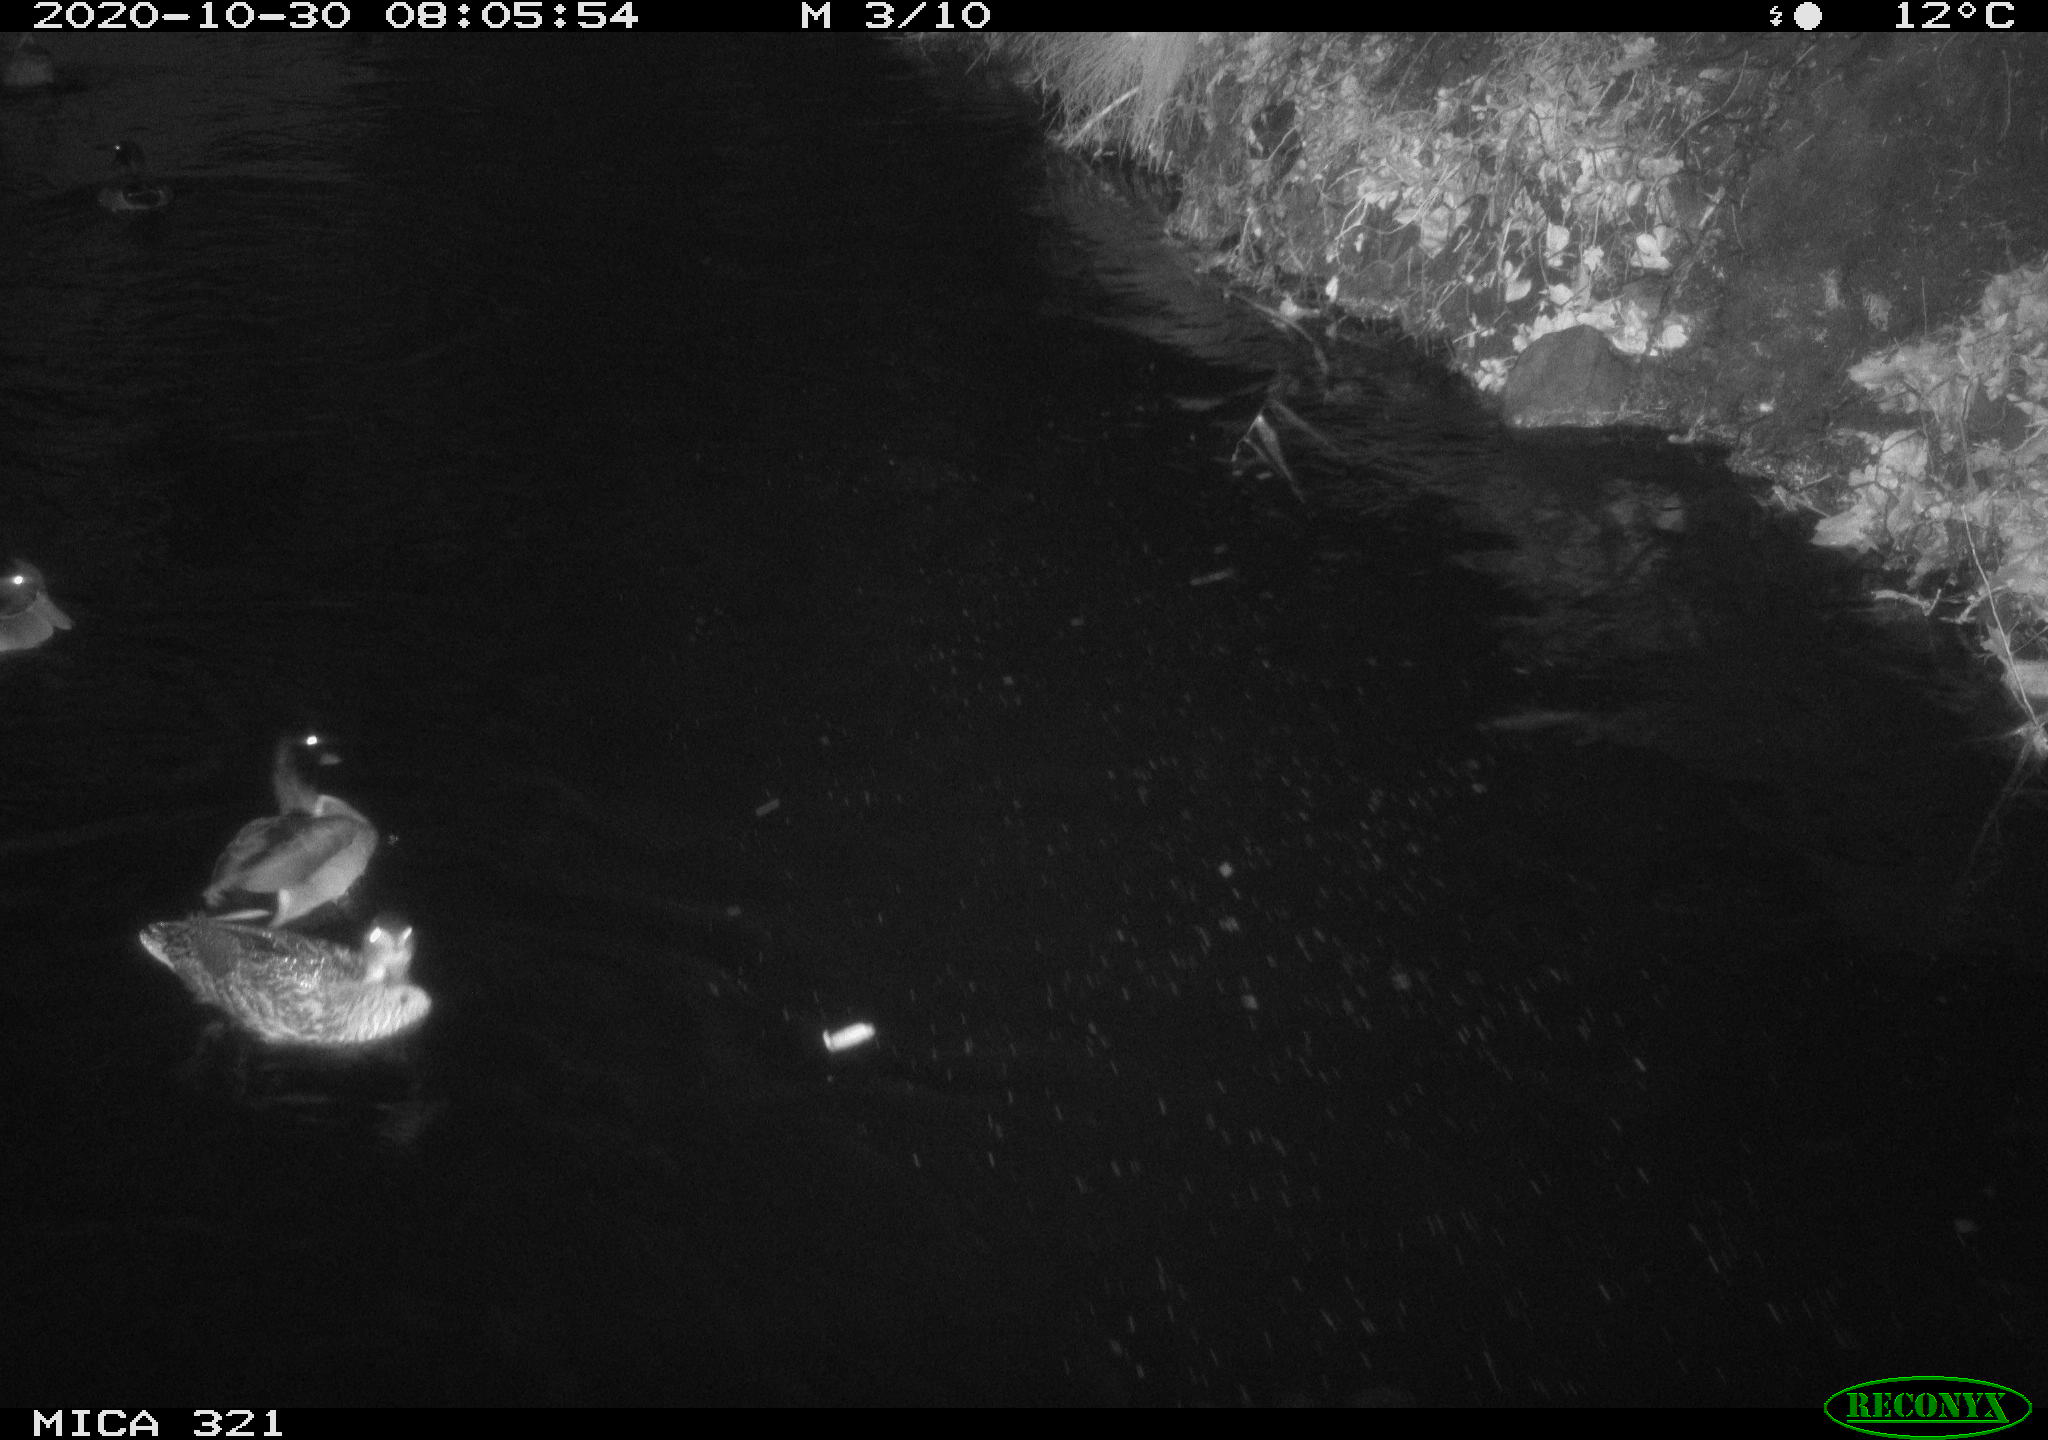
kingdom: Animalia
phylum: Chordata
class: Aves
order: Anseriformes
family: Anatidae
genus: Anas
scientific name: Anas platyrhynchos
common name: Mallard
